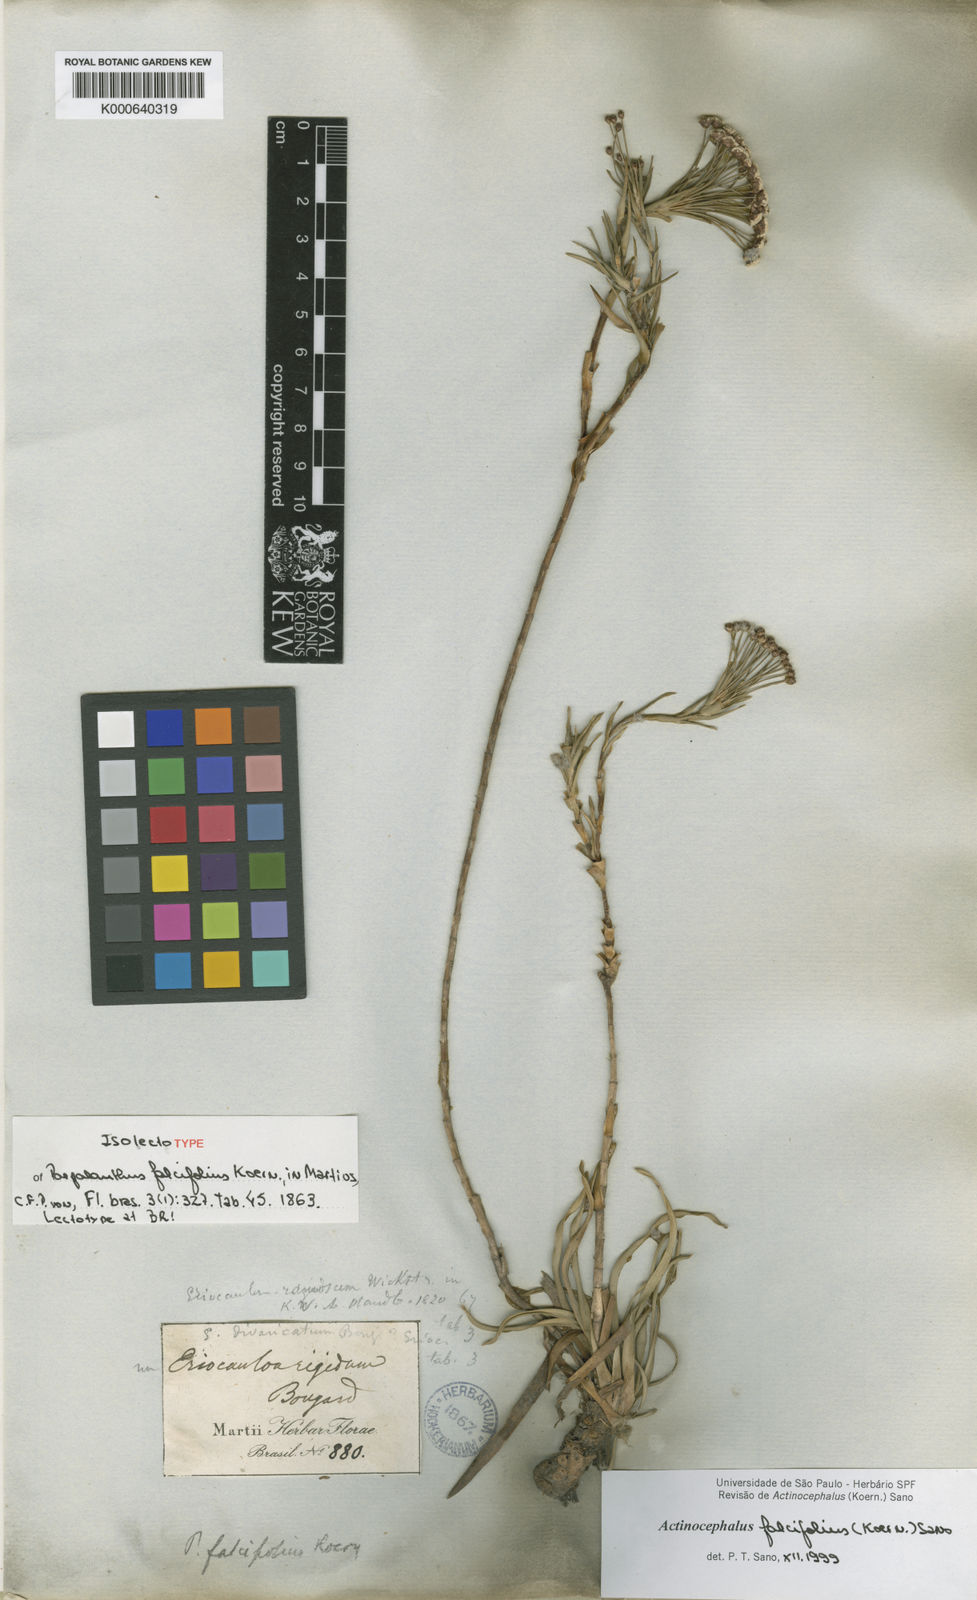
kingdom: Plantae
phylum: Tracheophyta
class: Liliopsida
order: Poales
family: Eriocaulaceae
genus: Paepalanthus
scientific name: Paepalanthus
